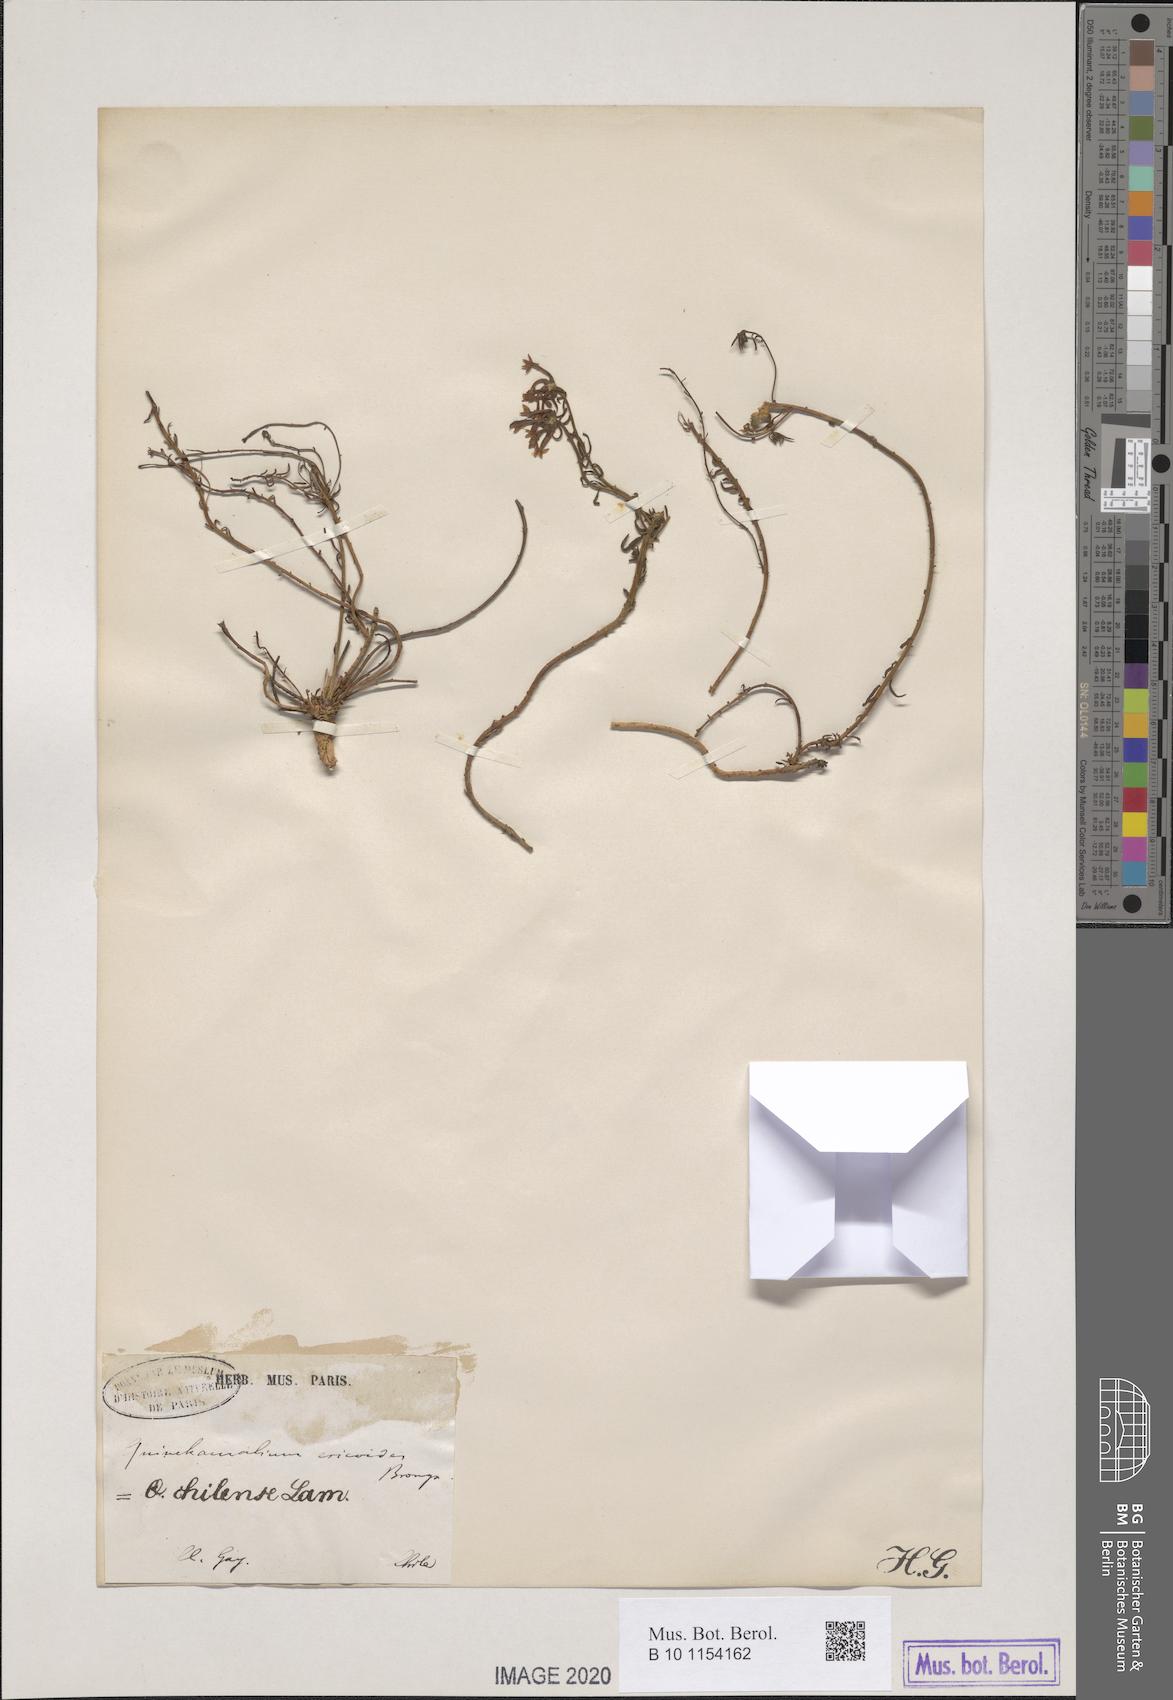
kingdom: Plantae
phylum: Tracheophyta
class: Magnoliopsida
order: Santalales
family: Schoepfiaceae
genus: Quinchamalium
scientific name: Quinchamalium chilense
